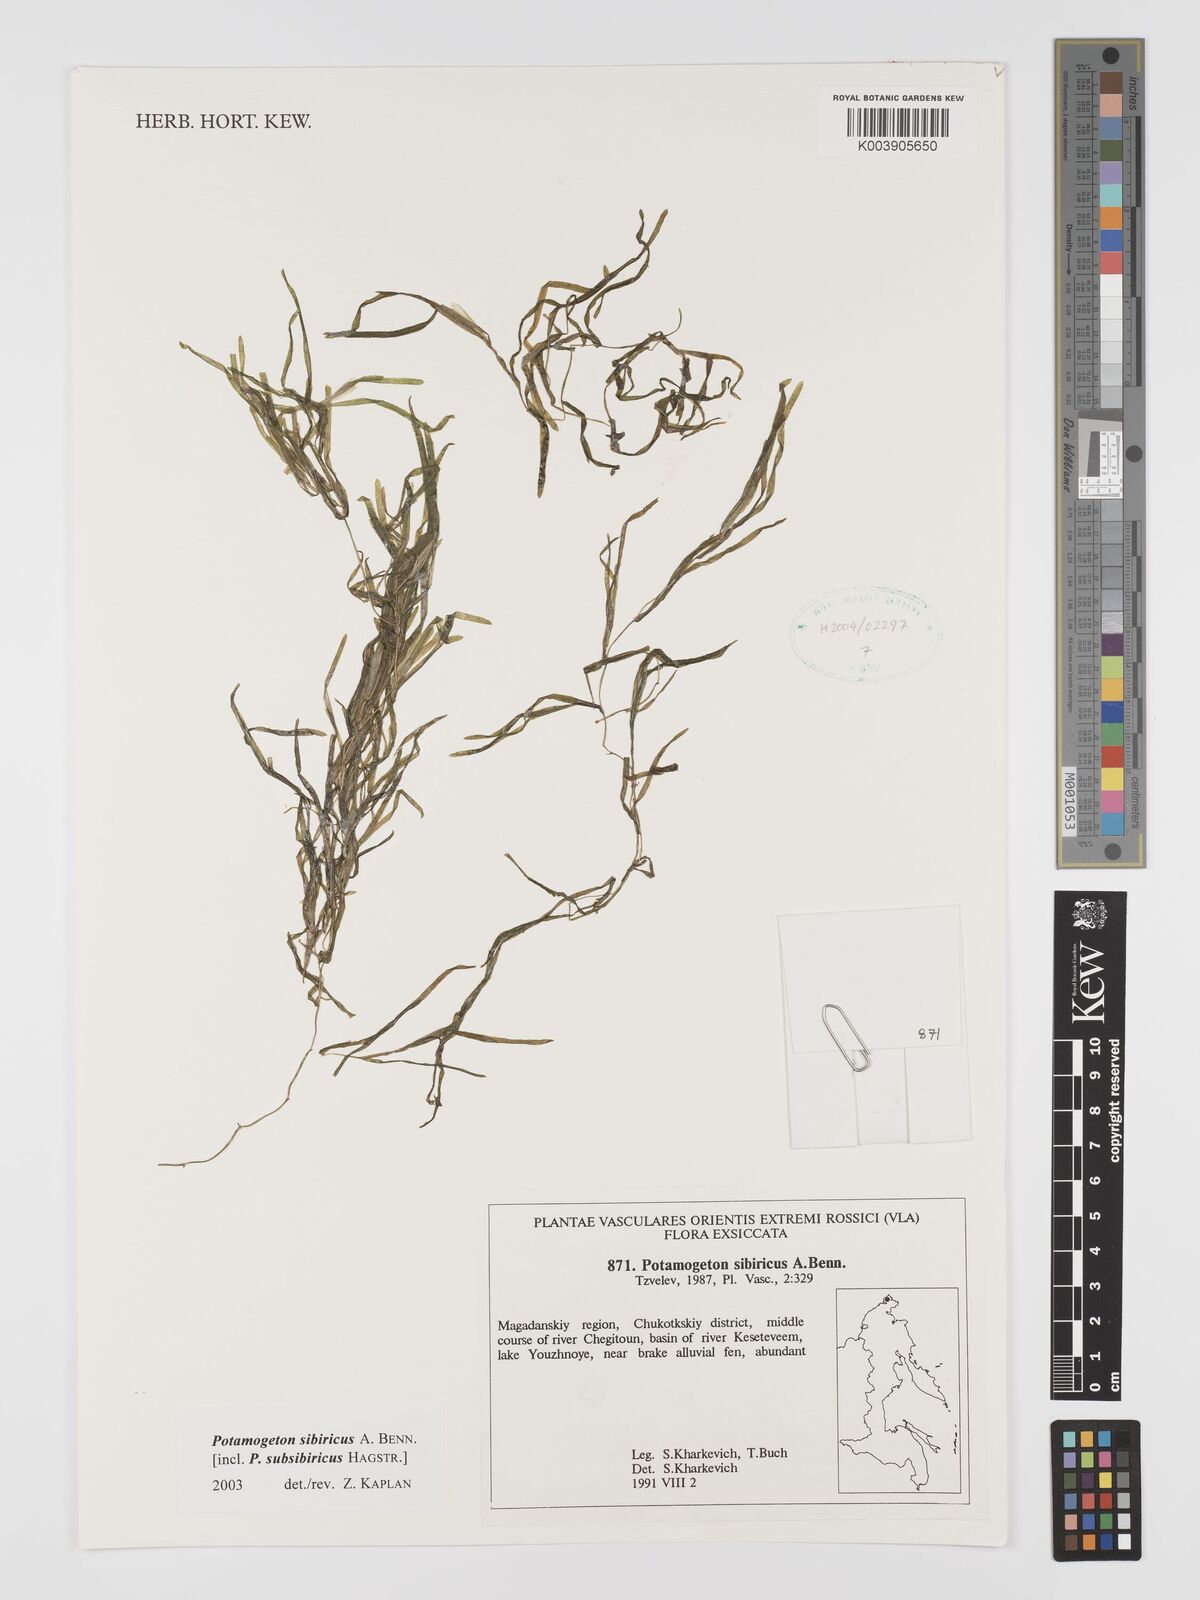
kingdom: Plantae
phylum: Tracheophyta
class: Liliopsida
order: Alismatales
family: Potamogetonaceae
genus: Potamogeton
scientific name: Potamogeton sibiricus
